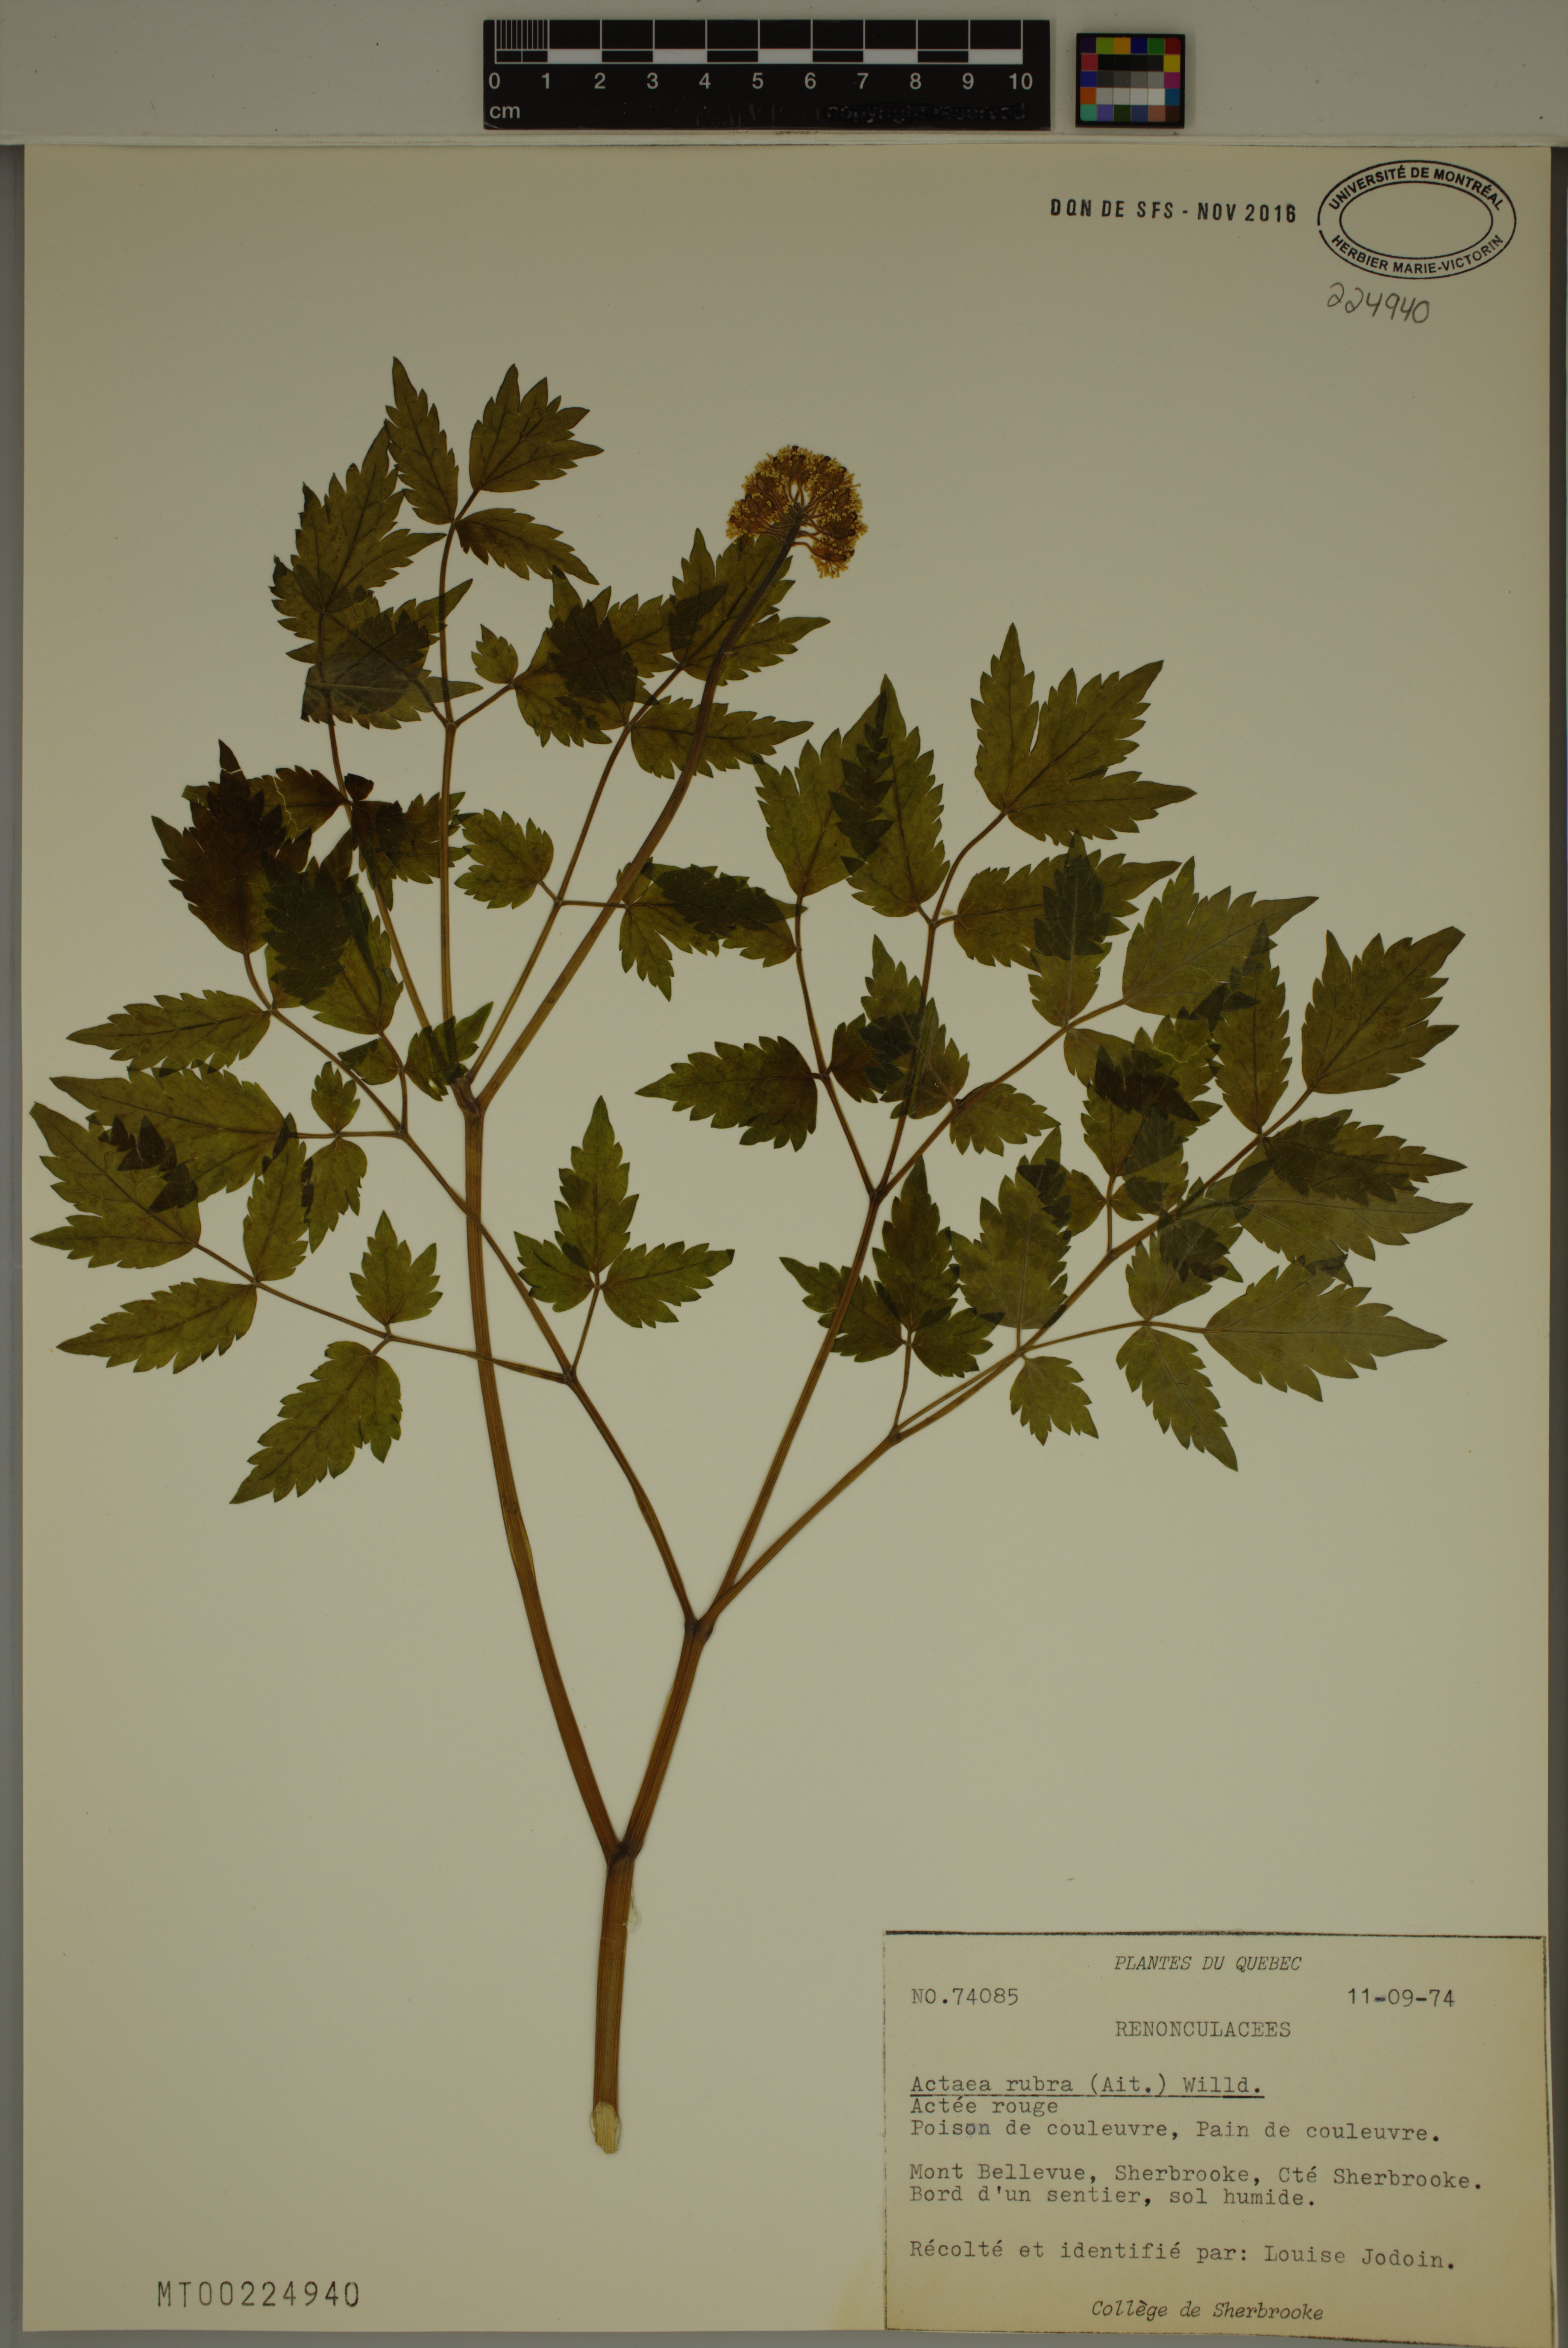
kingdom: Plantae
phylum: Tracheophyta
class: Magnoliopsida
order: Ranunculales
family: Ranunculaceae
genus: Actaea
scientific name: Actaea rubra
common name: Red baneberry
